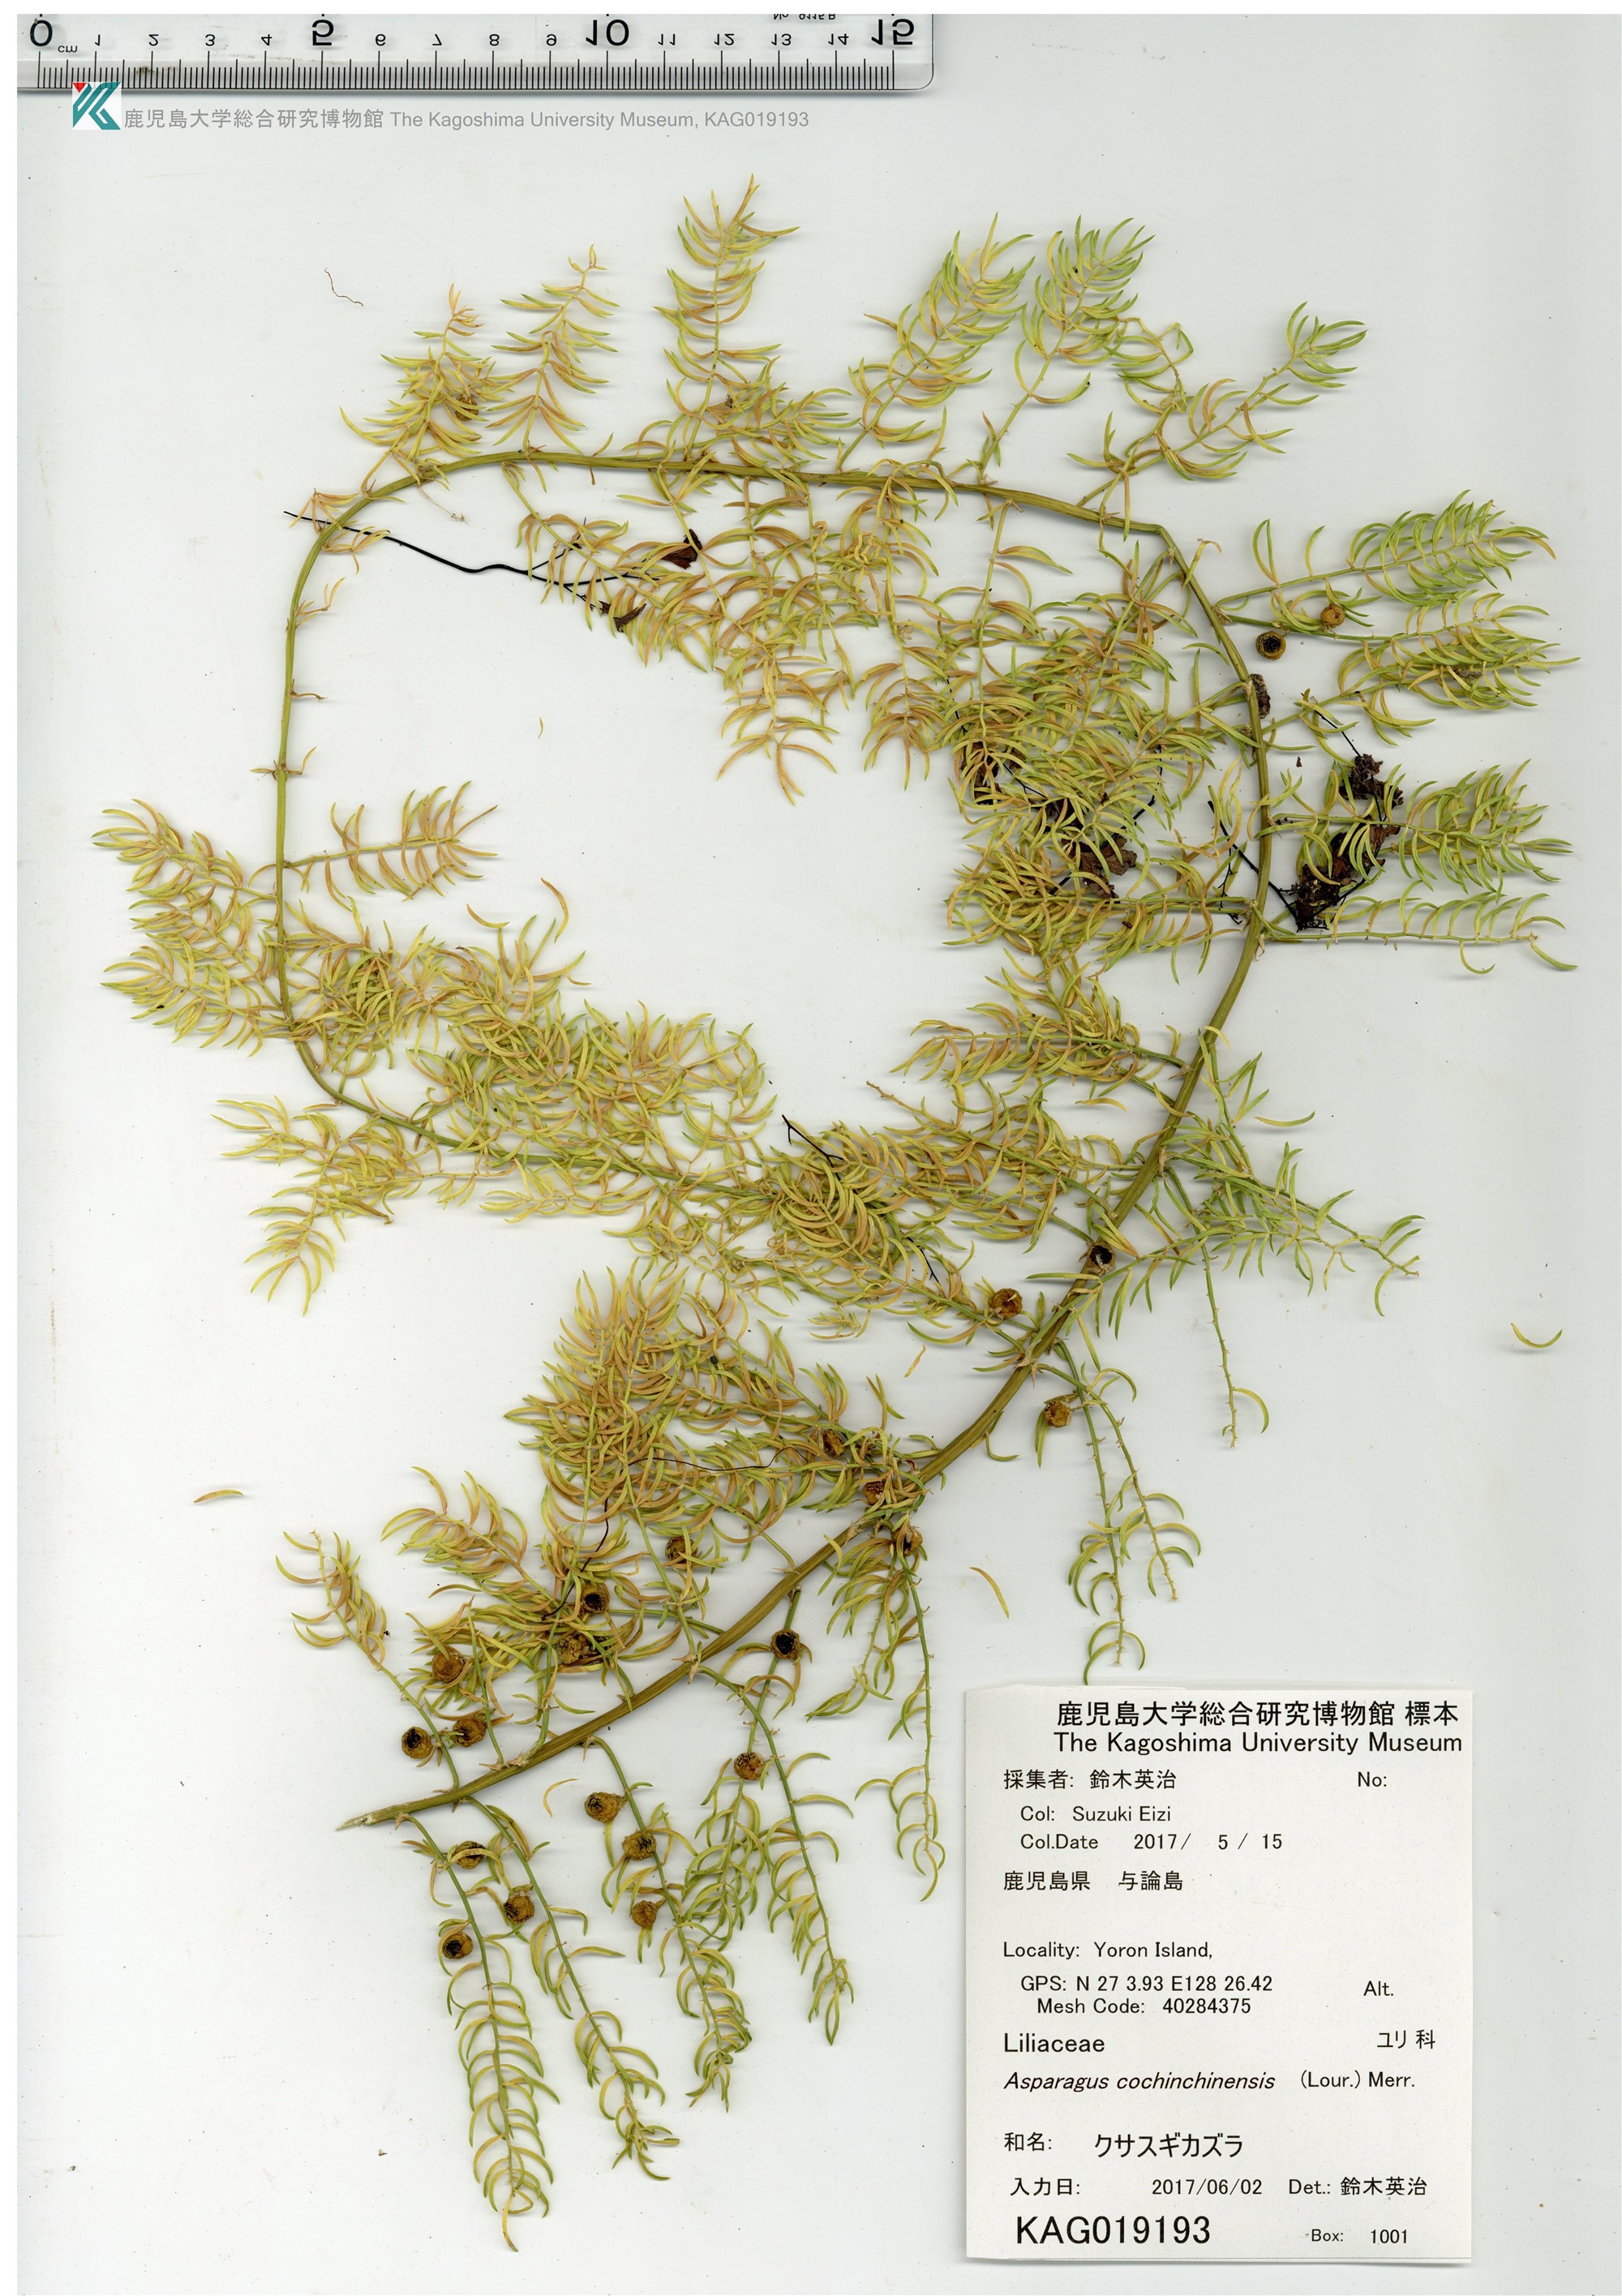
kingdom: Plantae
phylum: Tracheophyta
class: Liliopsida
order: Asparagales
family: Asparagaceae
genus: Asparagus
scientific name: Asparagus cochinchinensis
